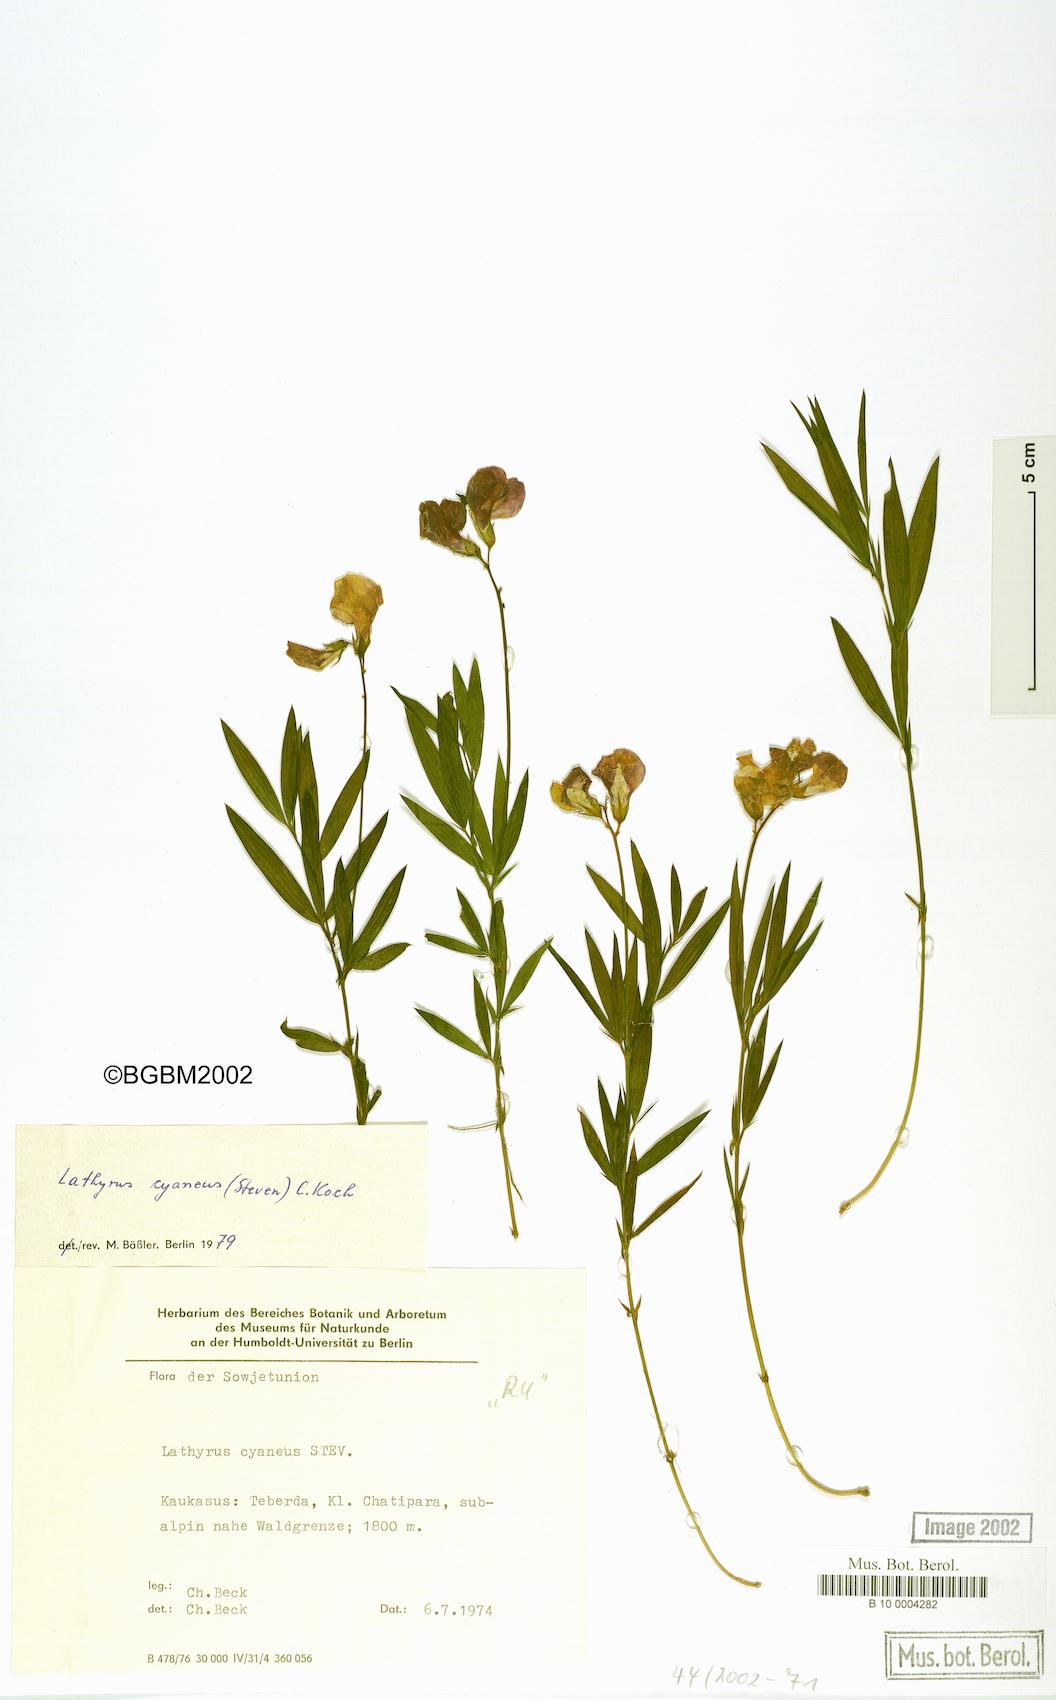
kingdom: Plantae
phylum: Tracheophyta
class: Magnoliopsida
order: Fabales
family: Fabaceae
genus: Lathyrus
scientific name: Lathyrus cyaneus
